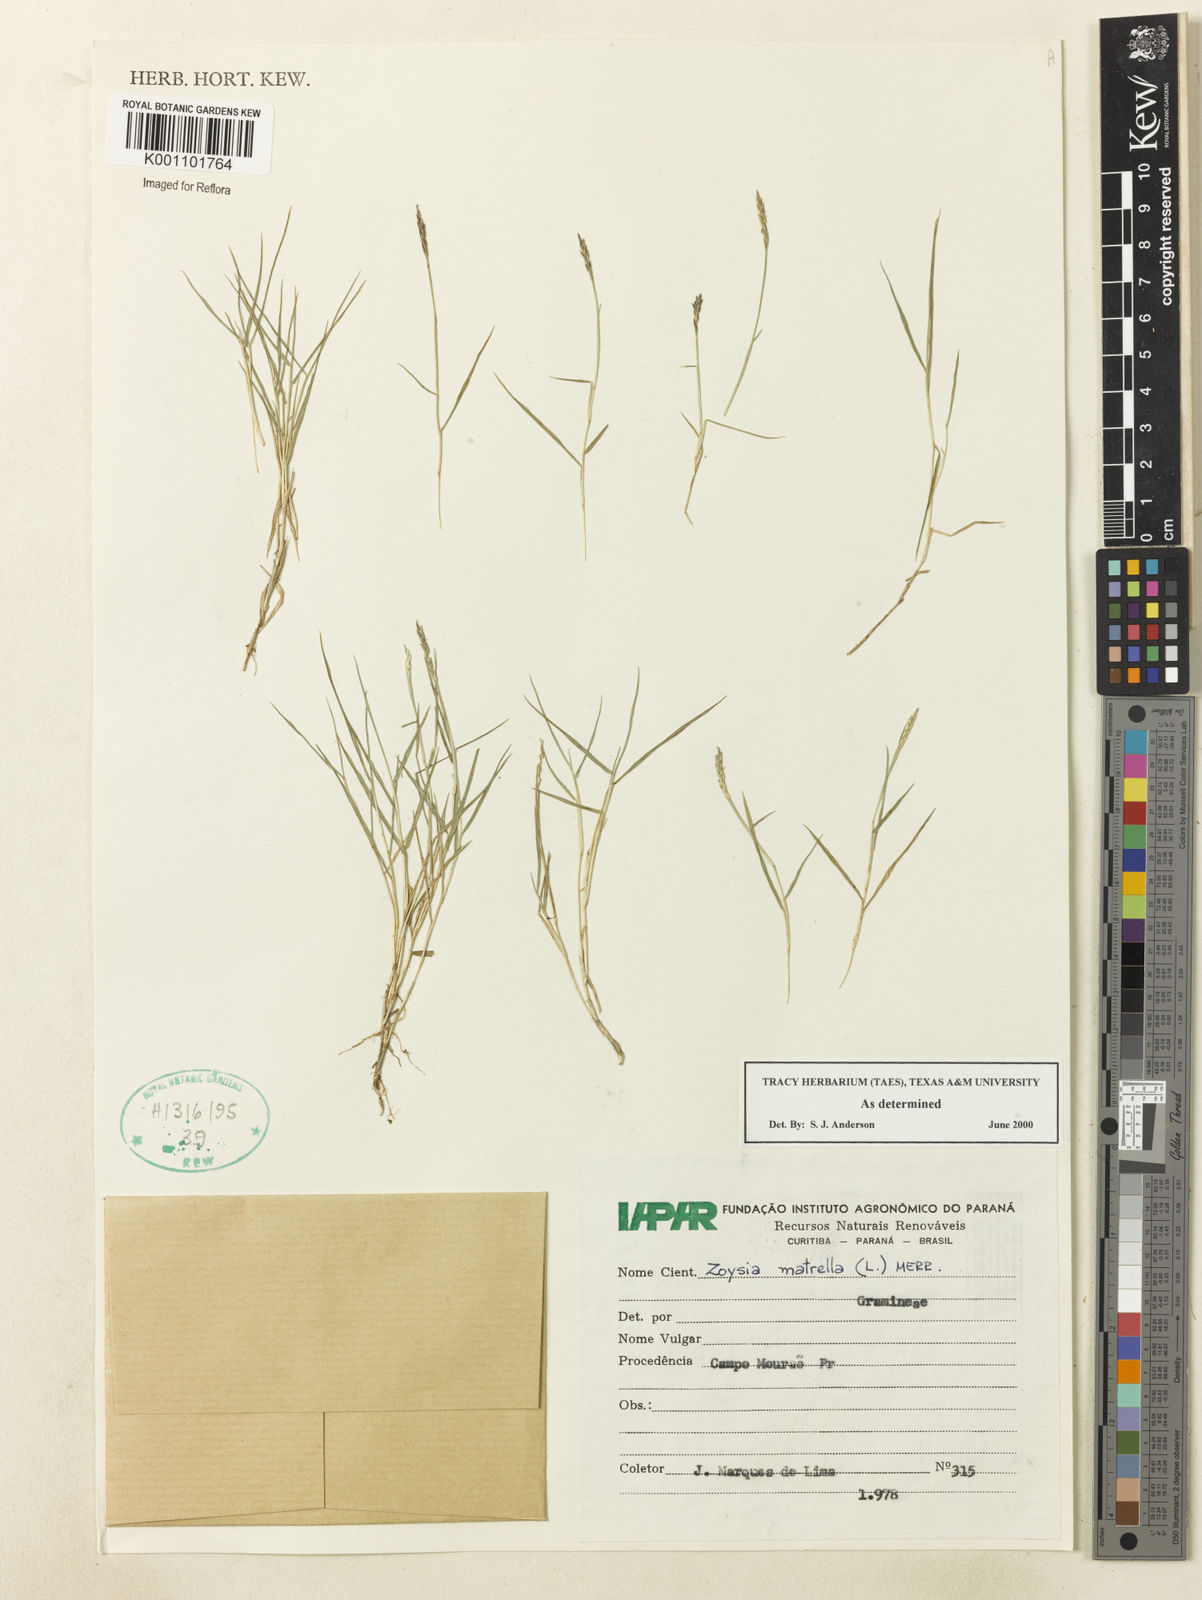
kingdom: Plantae
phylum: Tracheophyta
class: Liliopsida
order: Poales
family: Poaceae
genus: Zoysia
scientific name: Zoysia matrella
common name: Manila grass
